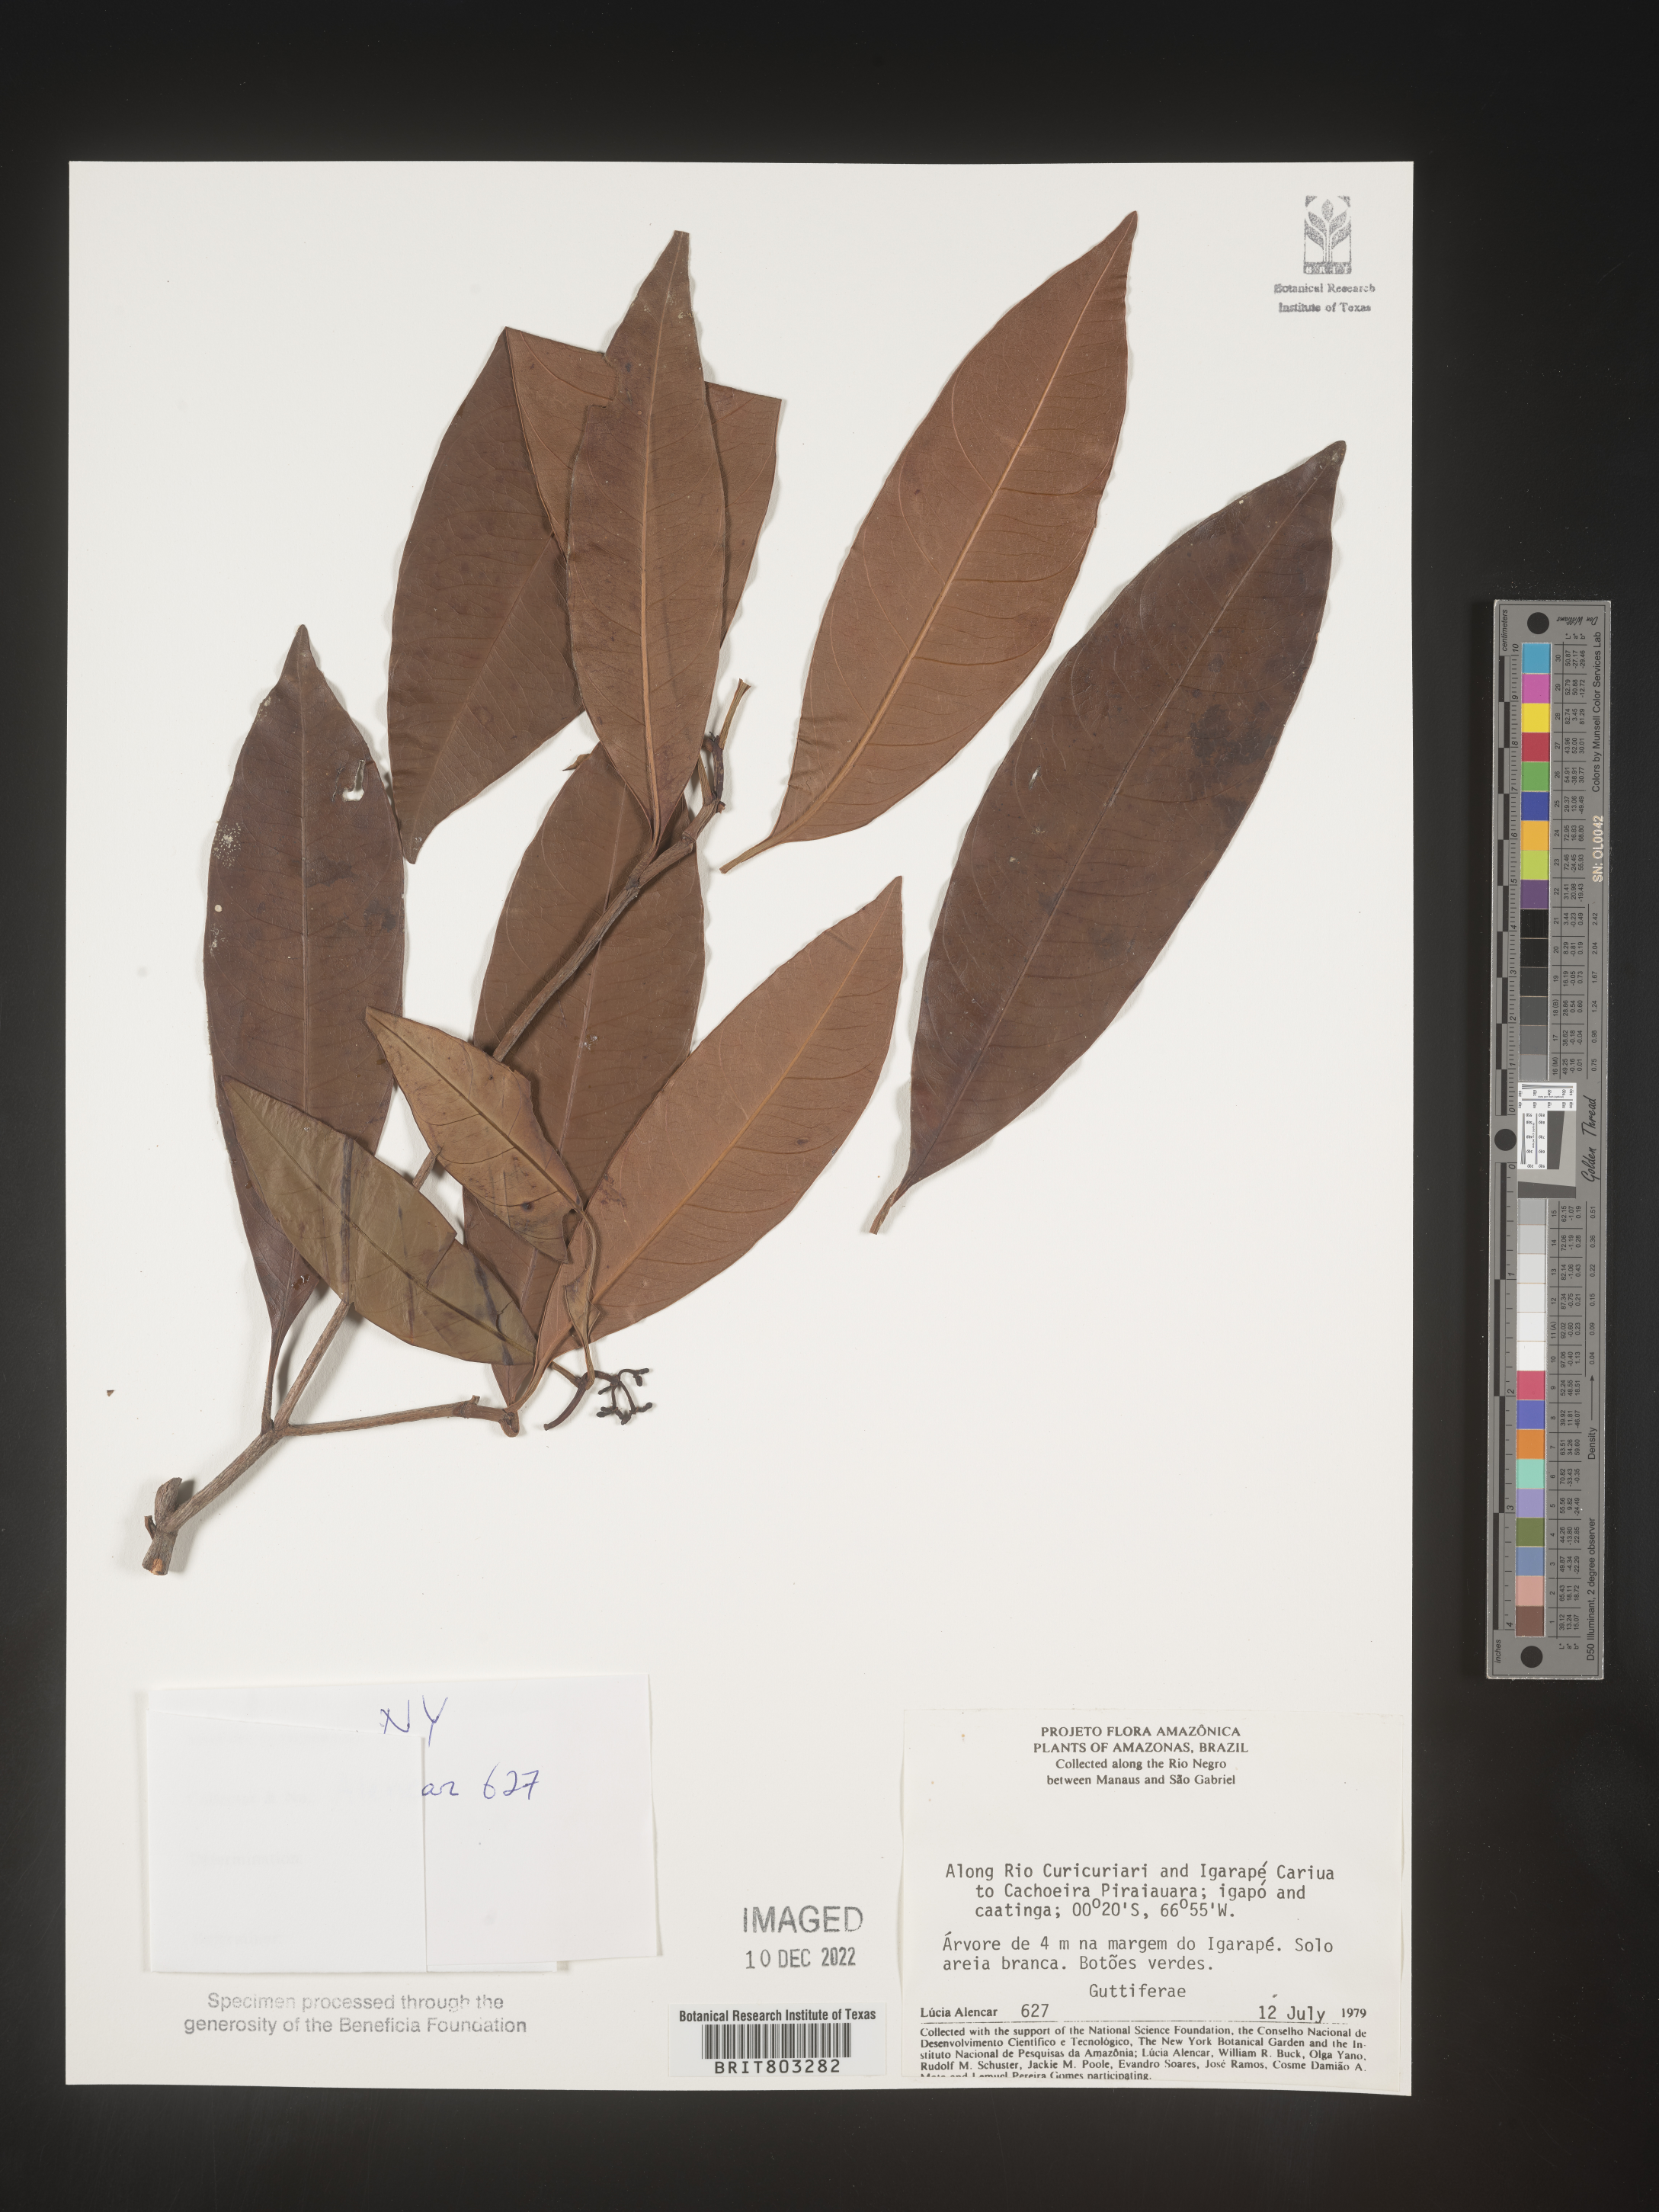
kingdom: Plantae
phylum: Tracheophyta
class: Magnoliopsida
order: Malpighiales
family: Clusiaceae
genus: Tovomita
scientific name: Tovomita
